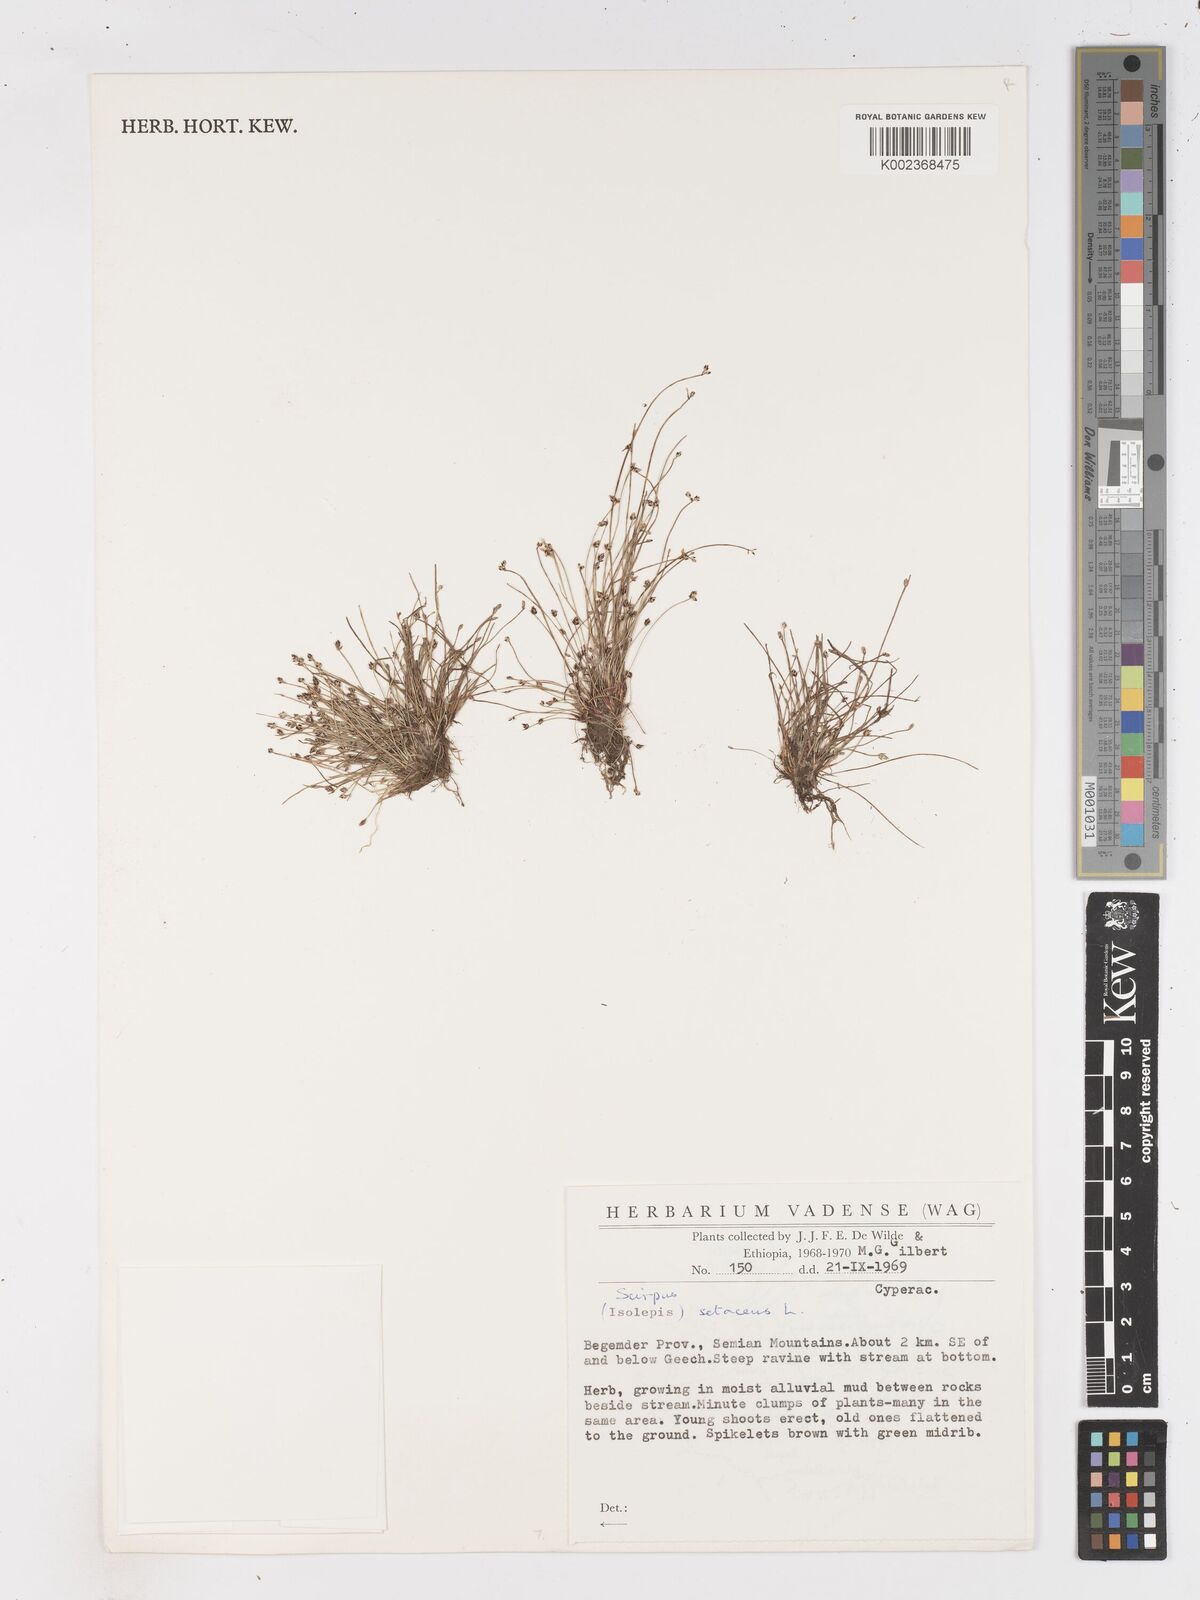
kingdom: Plantae
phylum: Tracheophyta
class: Liliopsida
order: Poales
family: Cyperaceae
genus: Isolepis
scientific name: Isolepis setacea
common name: Bristle club-rush
